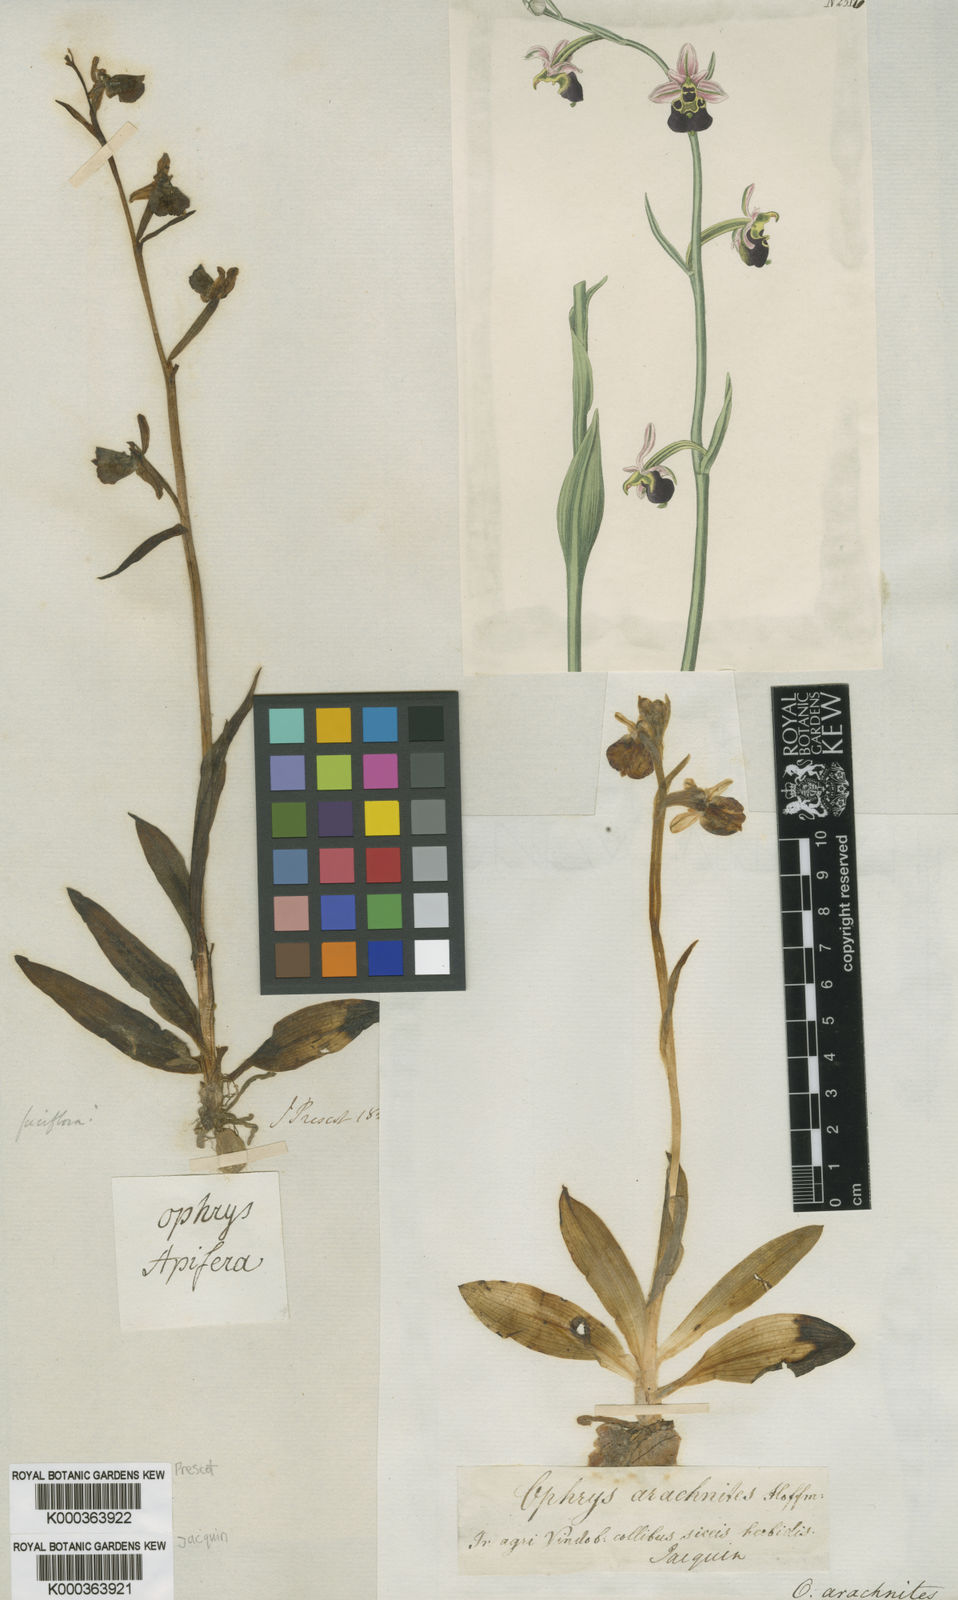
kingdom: Plantae
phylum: Tracheophyta
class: Liliopsida
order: Asparagales
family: Orchidaceae
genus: Ophrys
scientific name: Ophrys apifera
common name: Bee orchid
